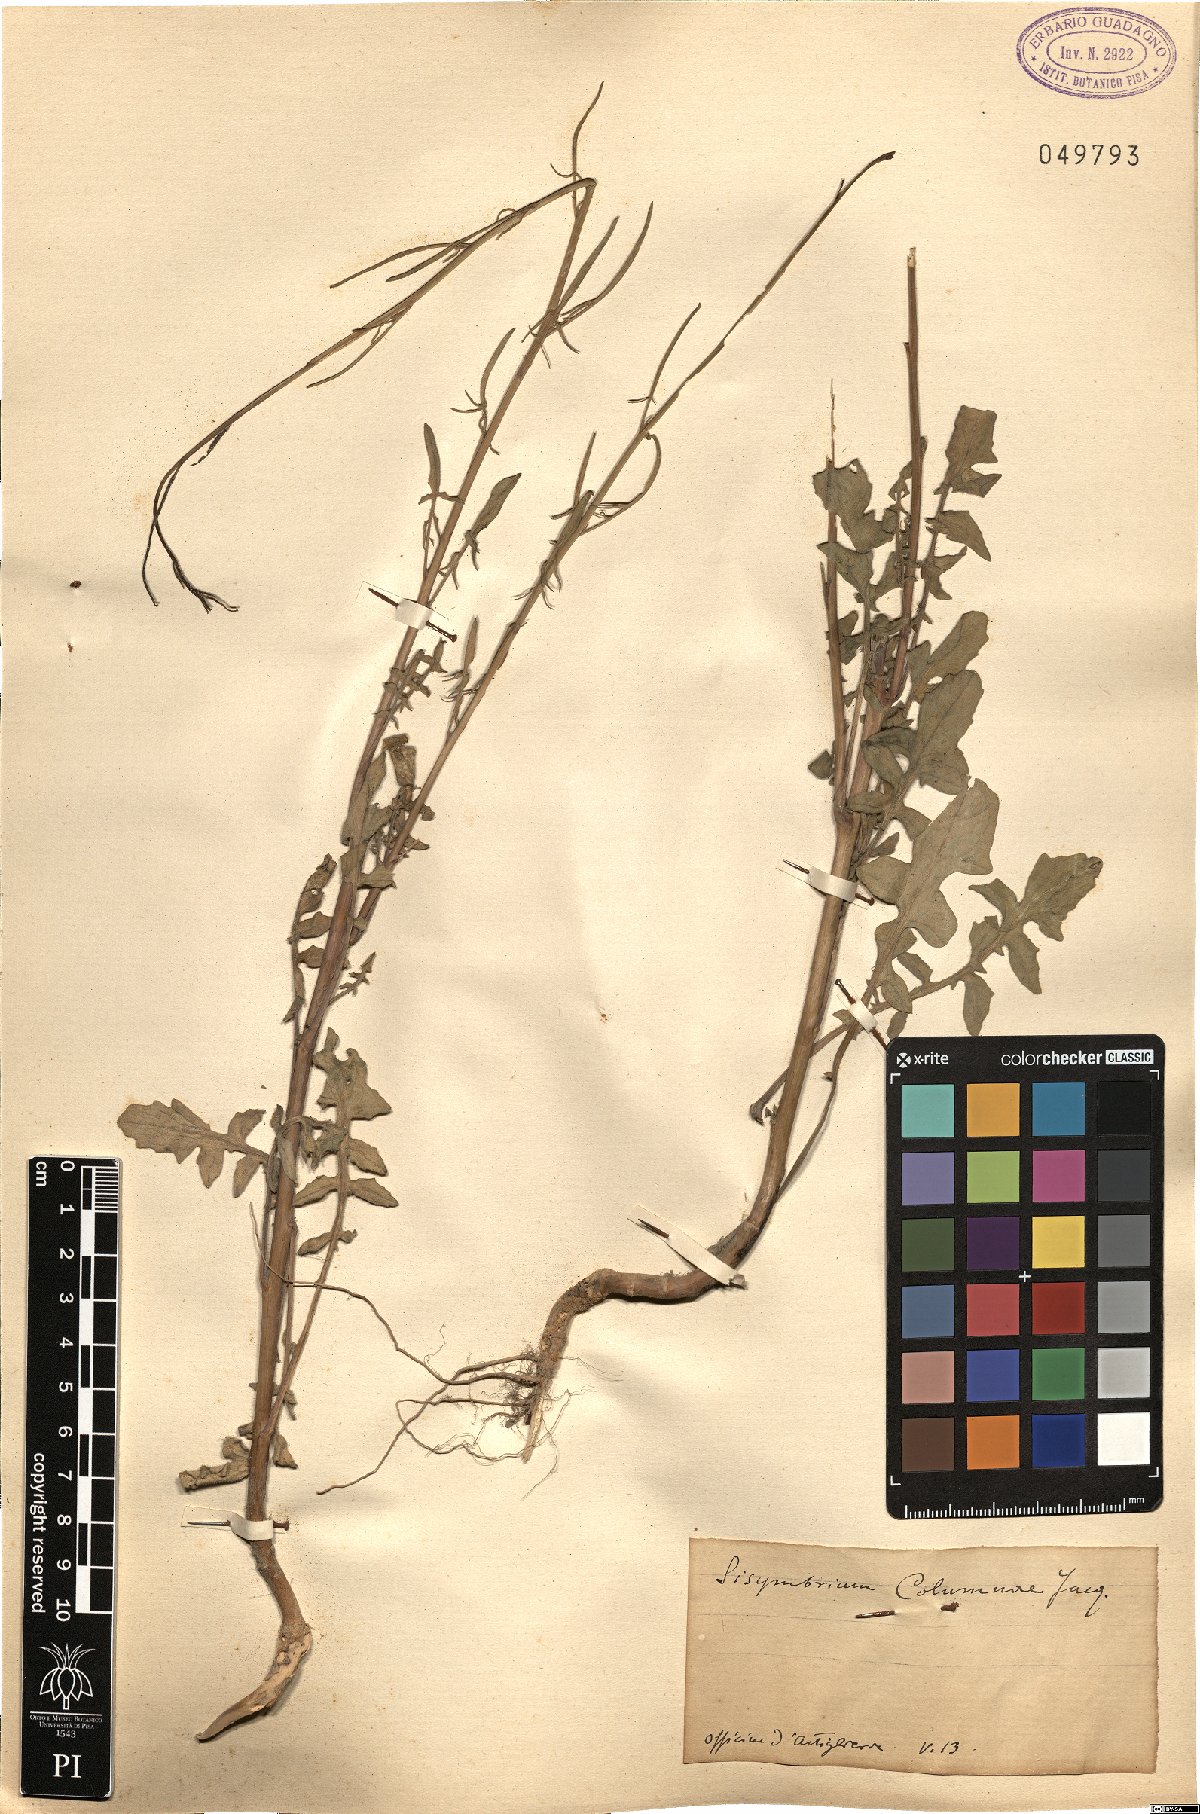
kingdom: Plantae
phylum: Tracheophyta
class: Magnoliopsida
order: Brassicales
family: Brassicaceae
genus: Sisymbrium
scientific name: Sisymbrium orientale
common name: Eastern rocket
